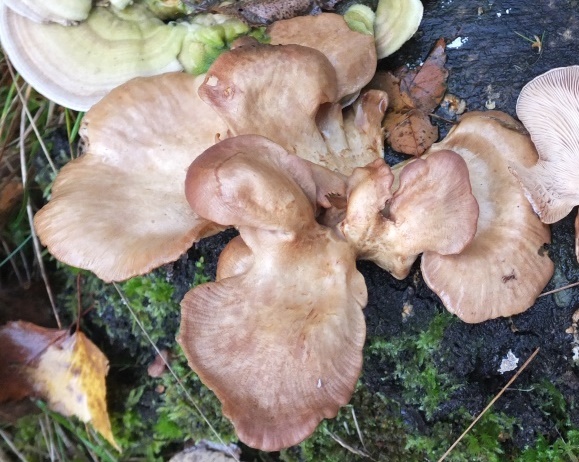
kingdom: Fungi
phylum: Basidiomycota
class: Agaricomycetes
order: Polyporales
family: Panaceae
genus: Panus
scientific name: Panus conchatus
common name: filtstokket læderhat
